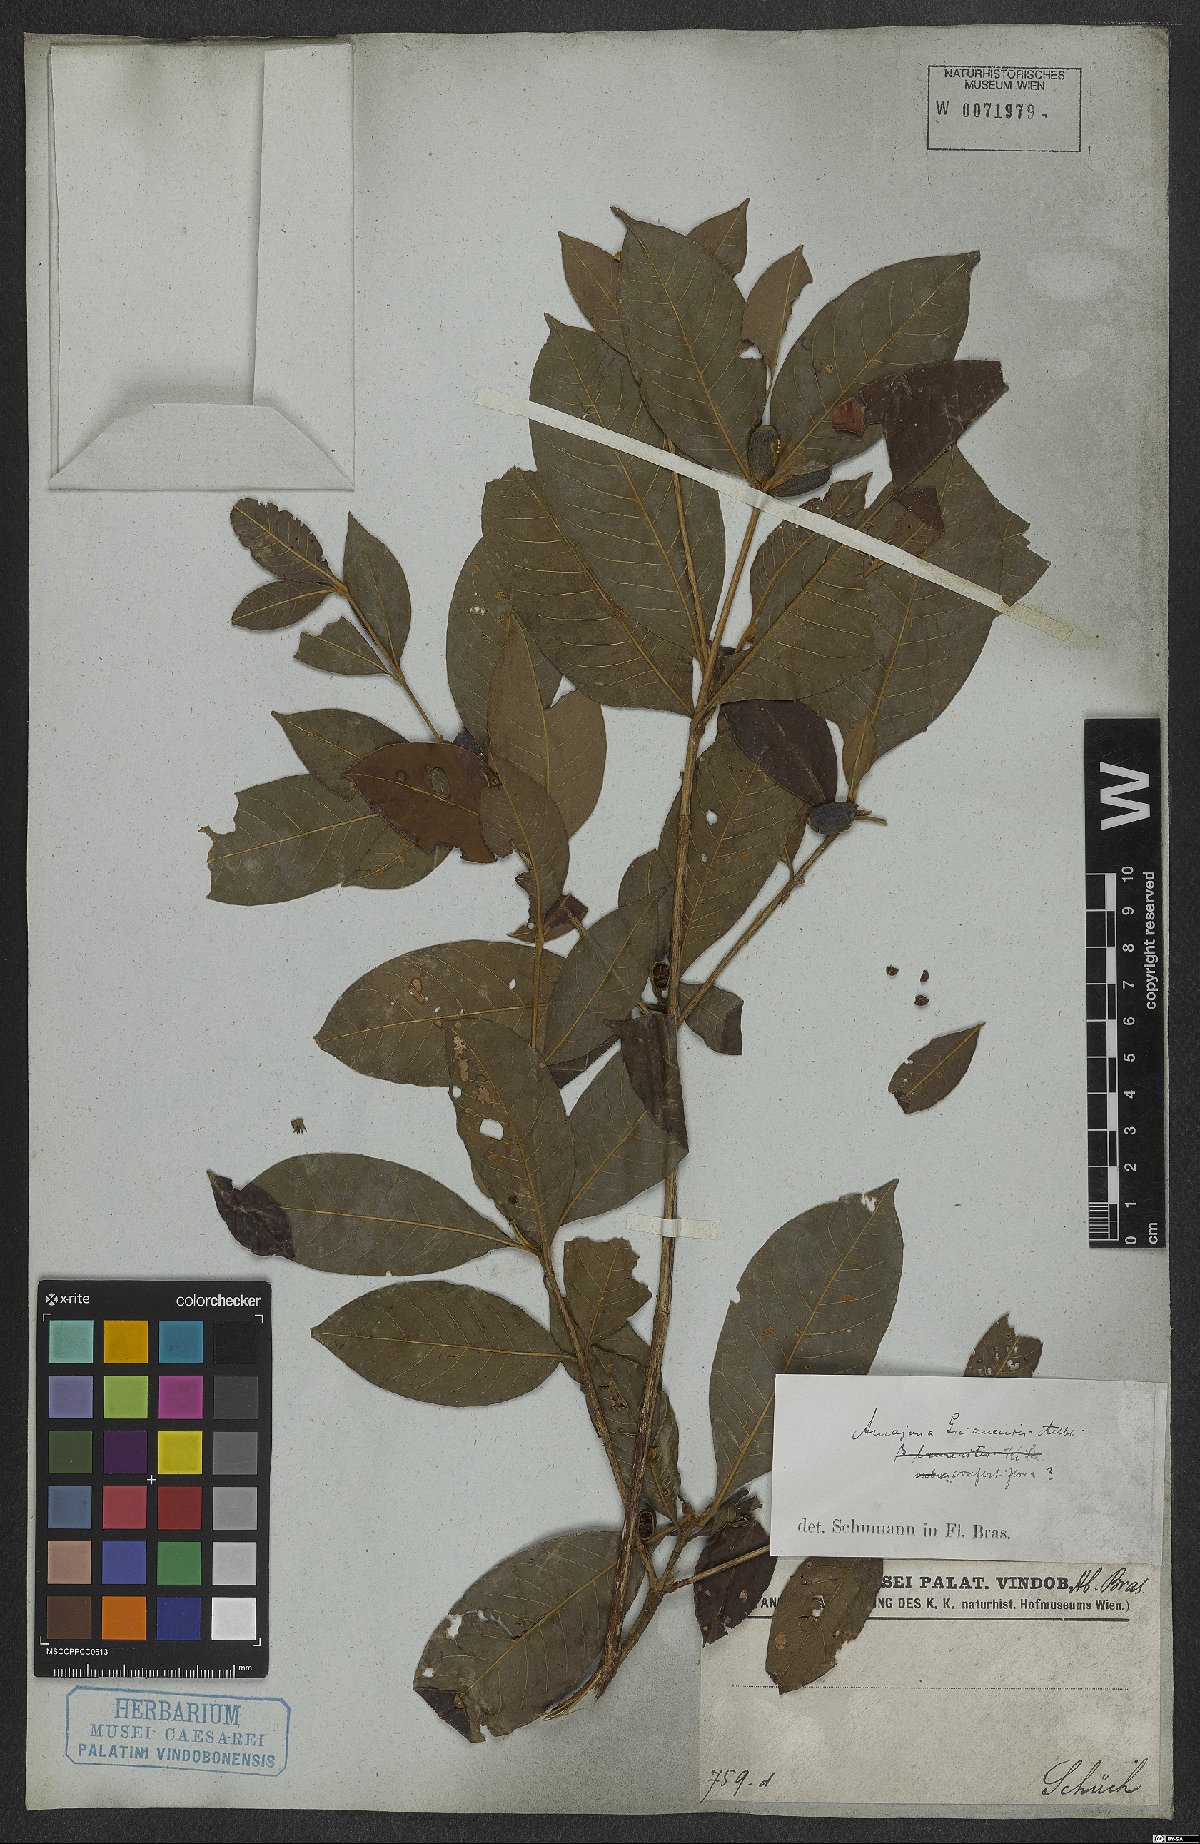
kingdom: Plantae
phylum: Tracheophyta
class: Magnoliopsida
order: Gentianales
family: Rubiaceae
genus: Amaioua
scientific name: Amaioua guianensis
